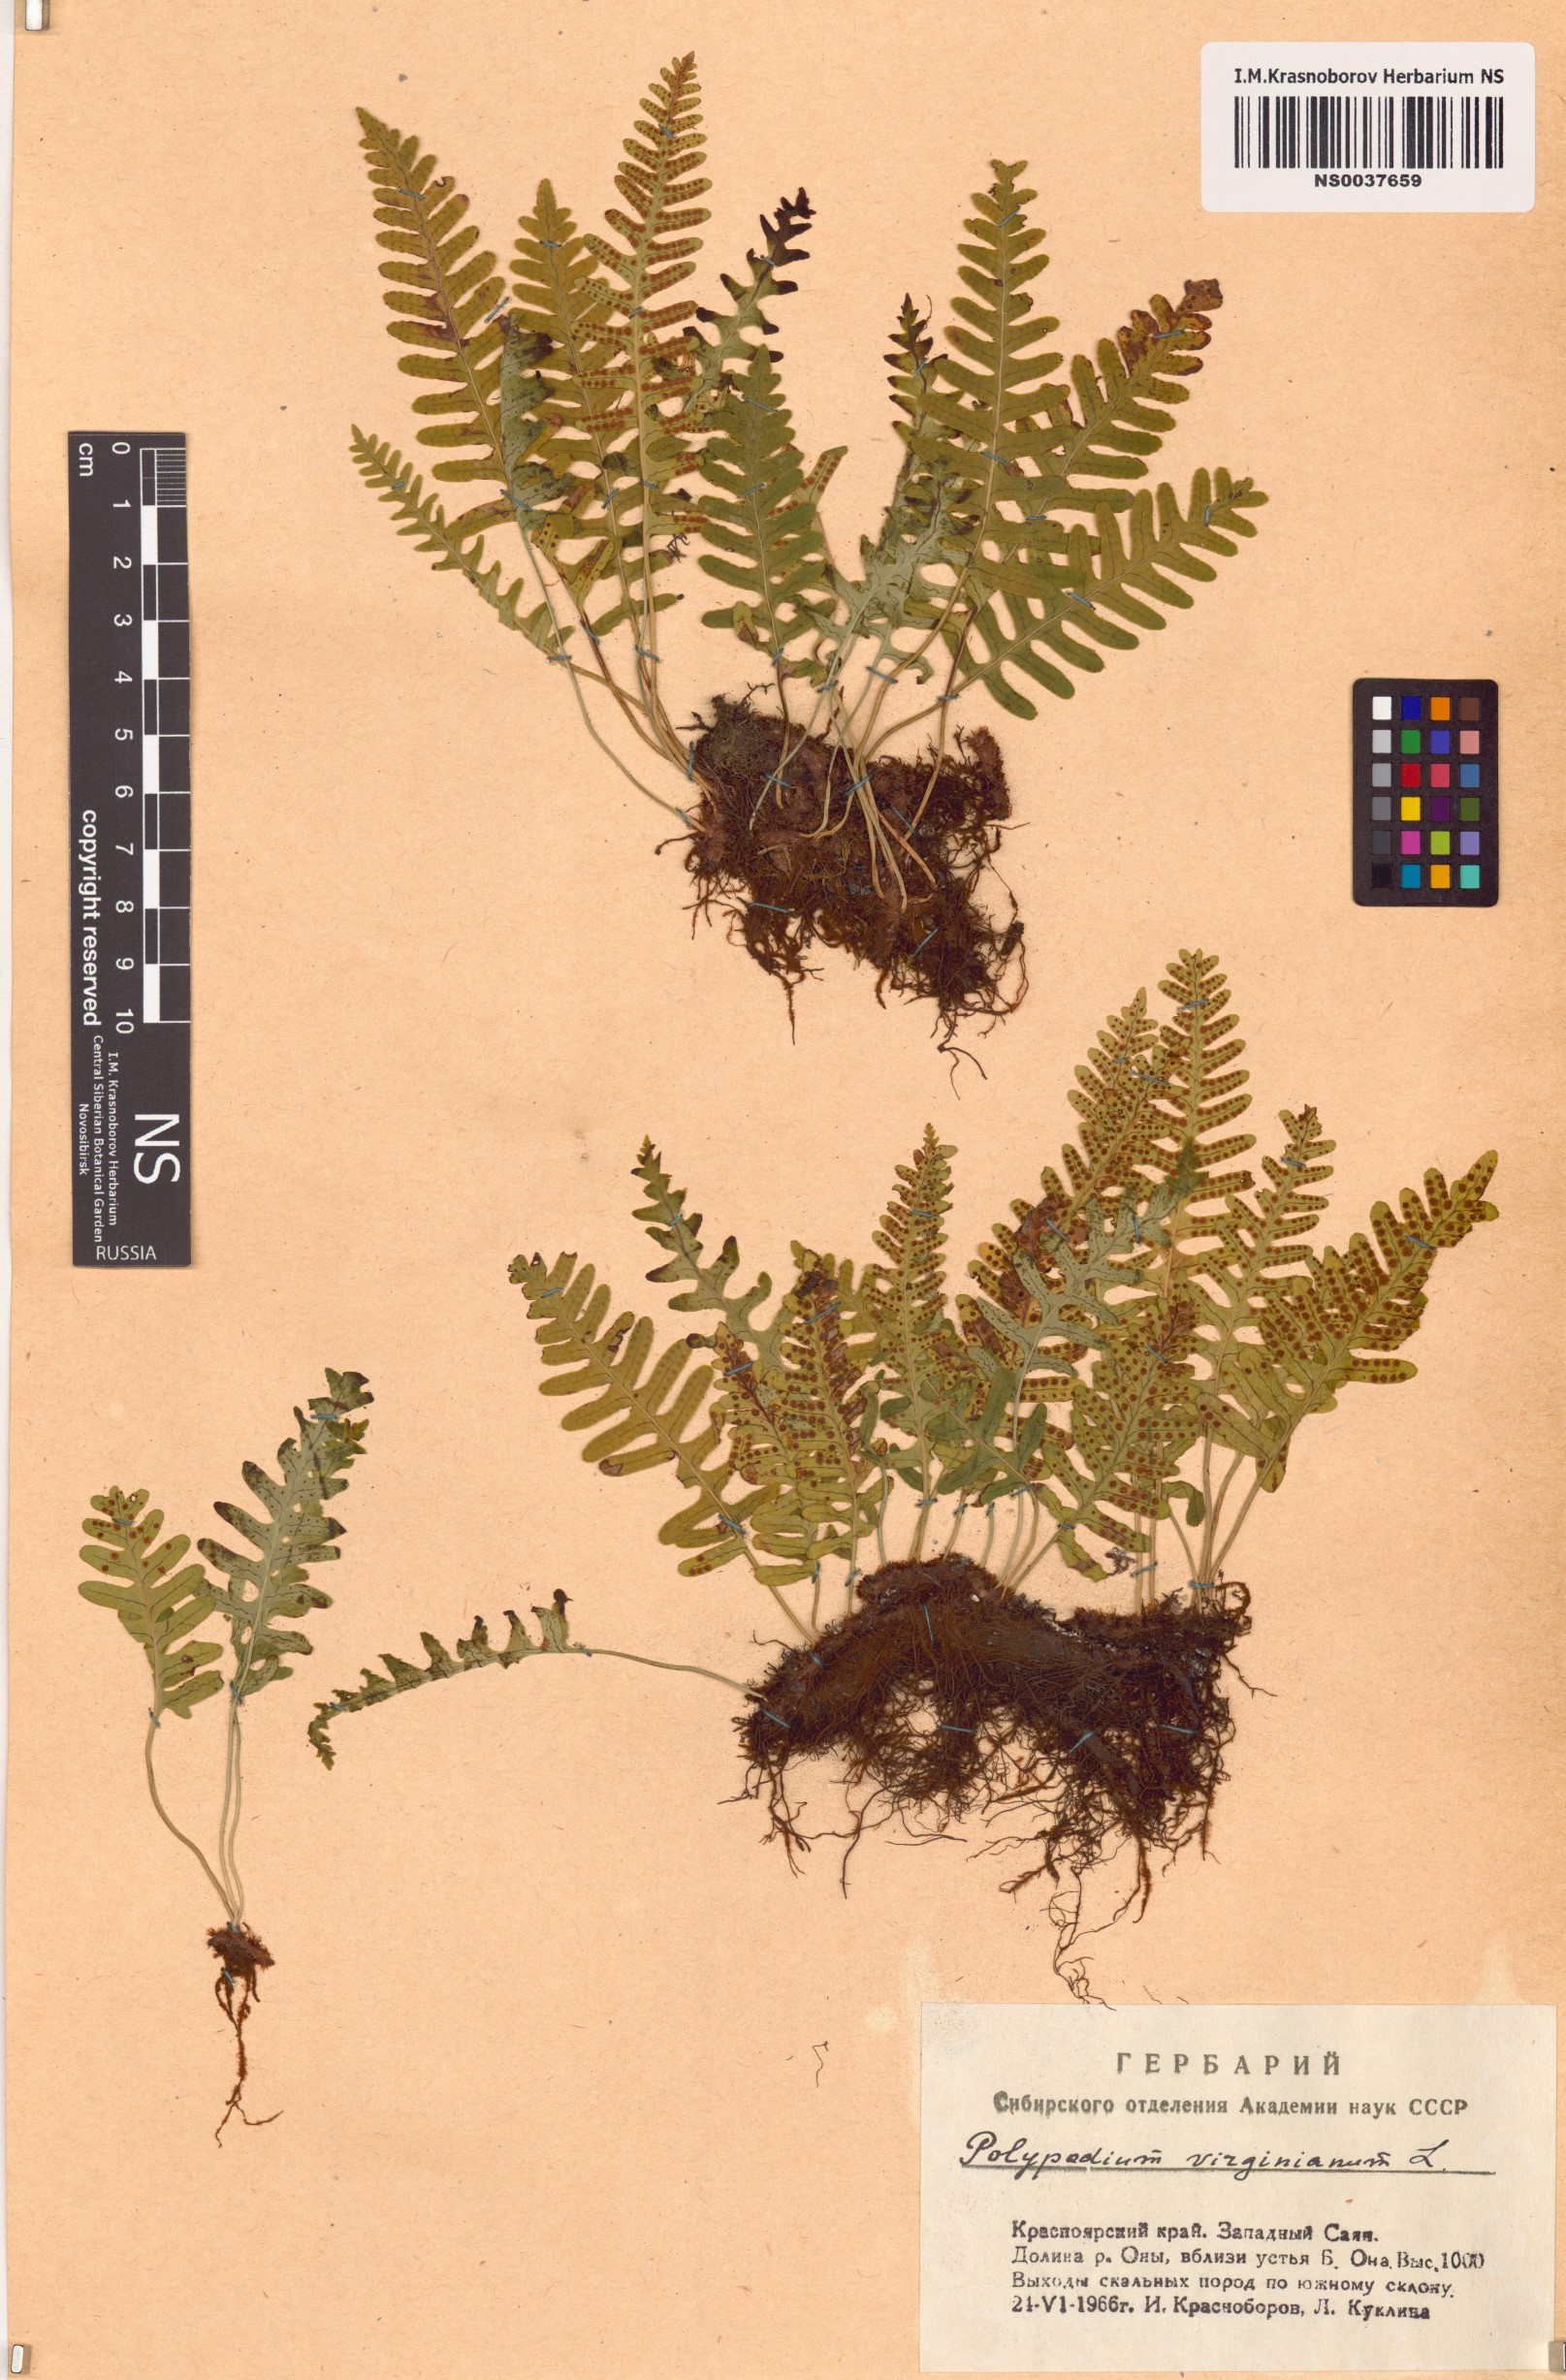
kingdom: Plantae
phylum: Tracheophyta
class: Polypodiopsida
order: Polypodiales
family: Polypodiaceae
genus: Polypodium
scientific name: Polypodium virginianum
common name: American wall fern
